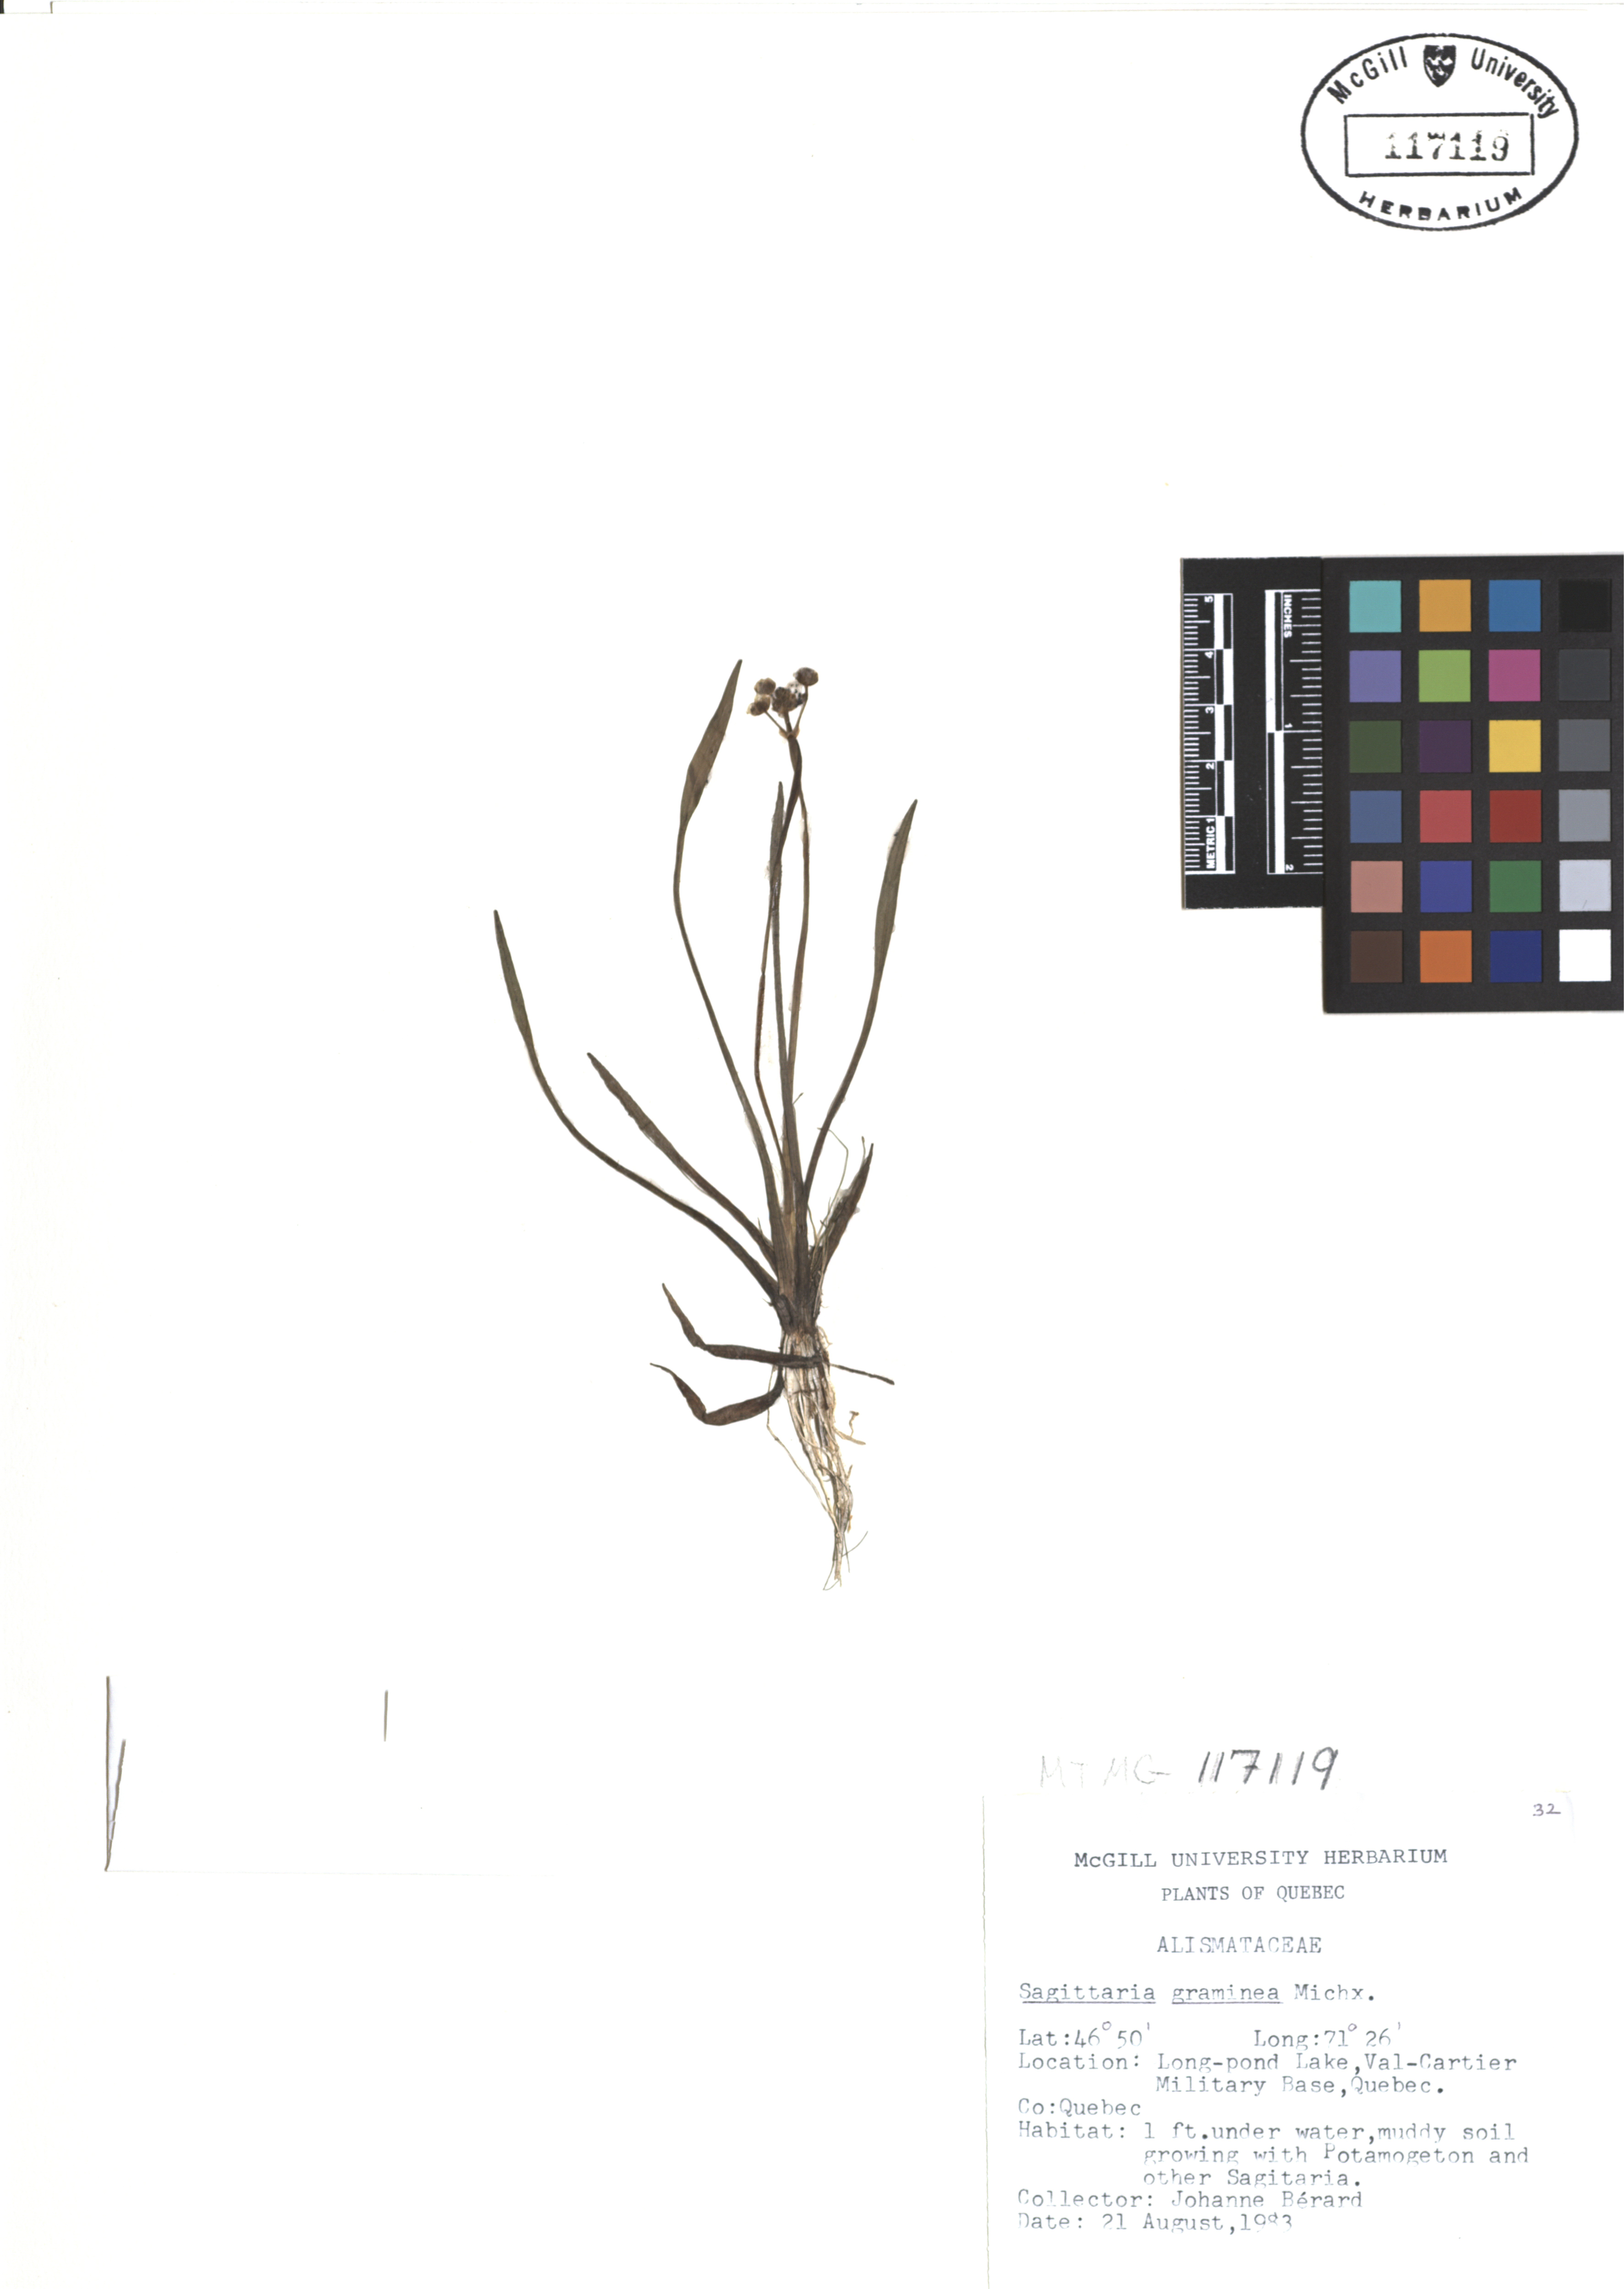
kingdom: Plantae
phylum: Tracheophyta
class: Liliopsida
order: Alismatales
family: Alismataceae
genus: Sagittaria
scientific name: Sagittaria graminea
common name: Grass-leaved arrowhead
